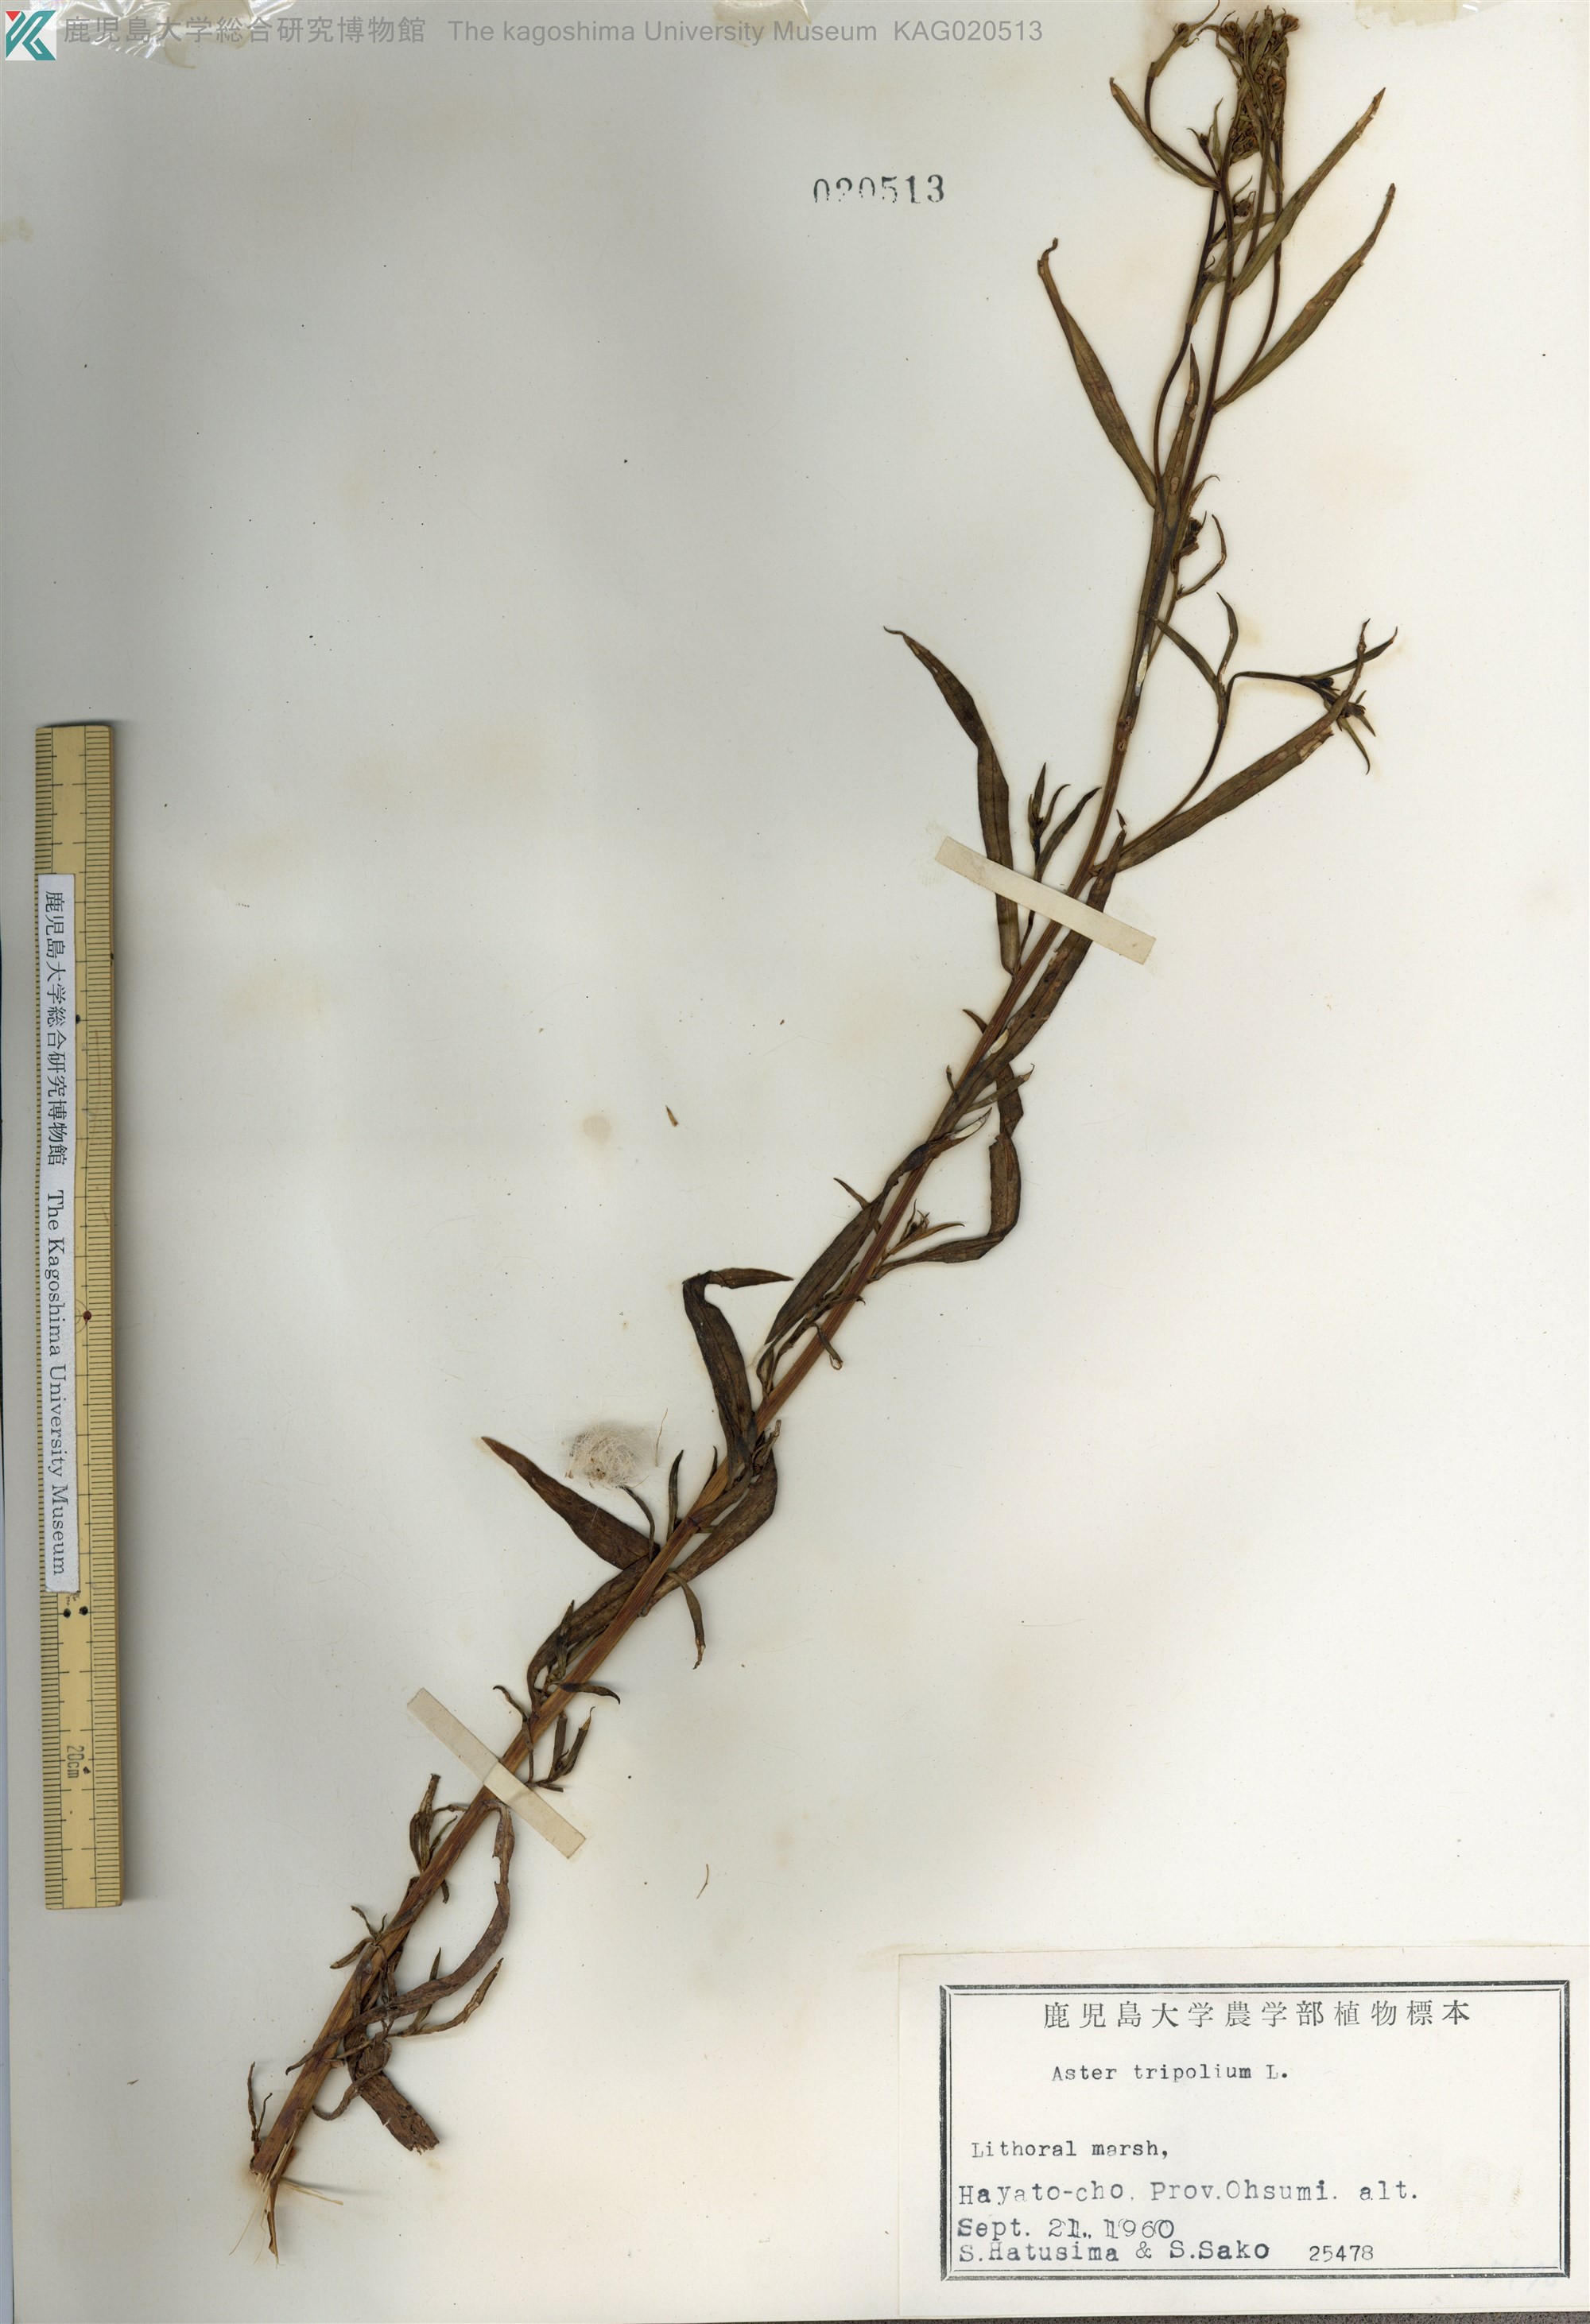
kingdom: Plantae
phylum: Tracheophyta
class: Magnoliopsida
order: Asterales
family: Asteraceae
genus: Tripolium
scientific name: Tripolium pannonicum
